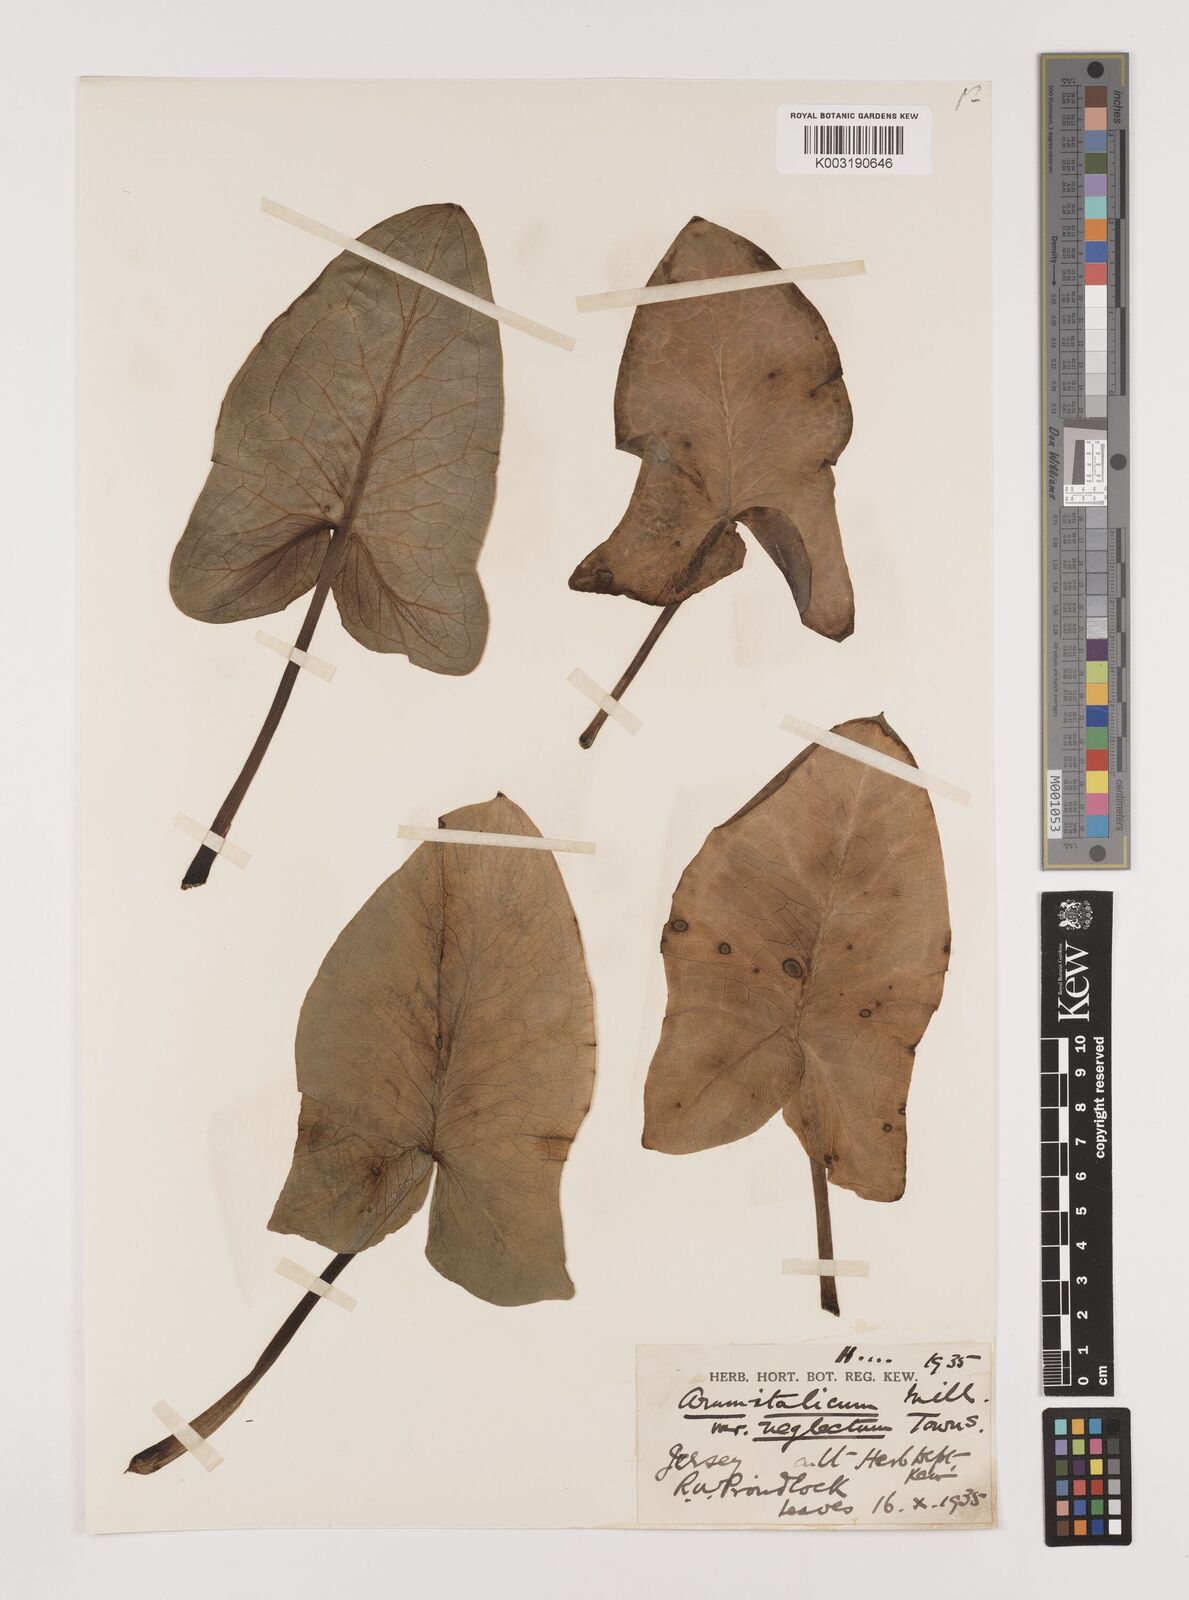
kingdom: Plantae
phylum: Tracheophyta
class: Liliopsida
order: Alismatales
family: Araceae
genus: Arum
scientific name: Arum italicum
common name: Italian lords-and-ladies
